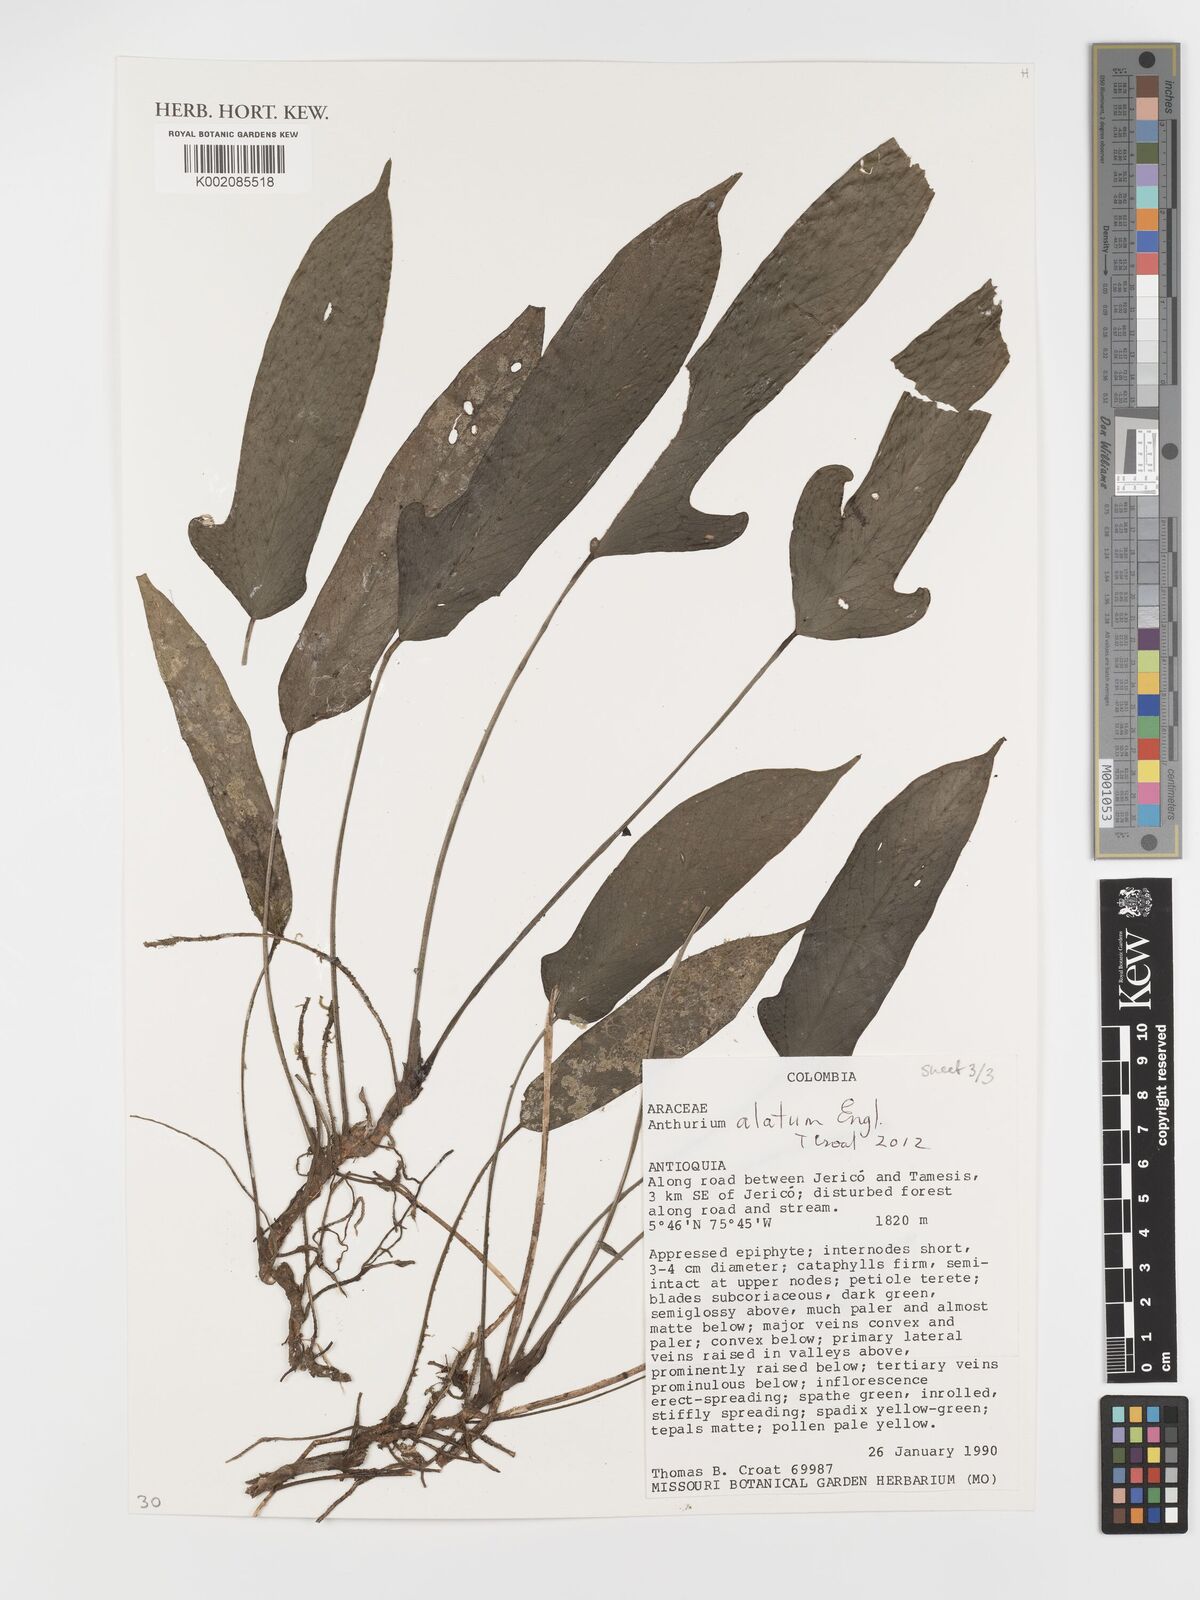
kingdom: Plantae
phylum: Tracheophyta
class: Liliopsida
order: Alismatales
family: Araceae
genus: Anthurium
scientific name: Anthurium alatum
